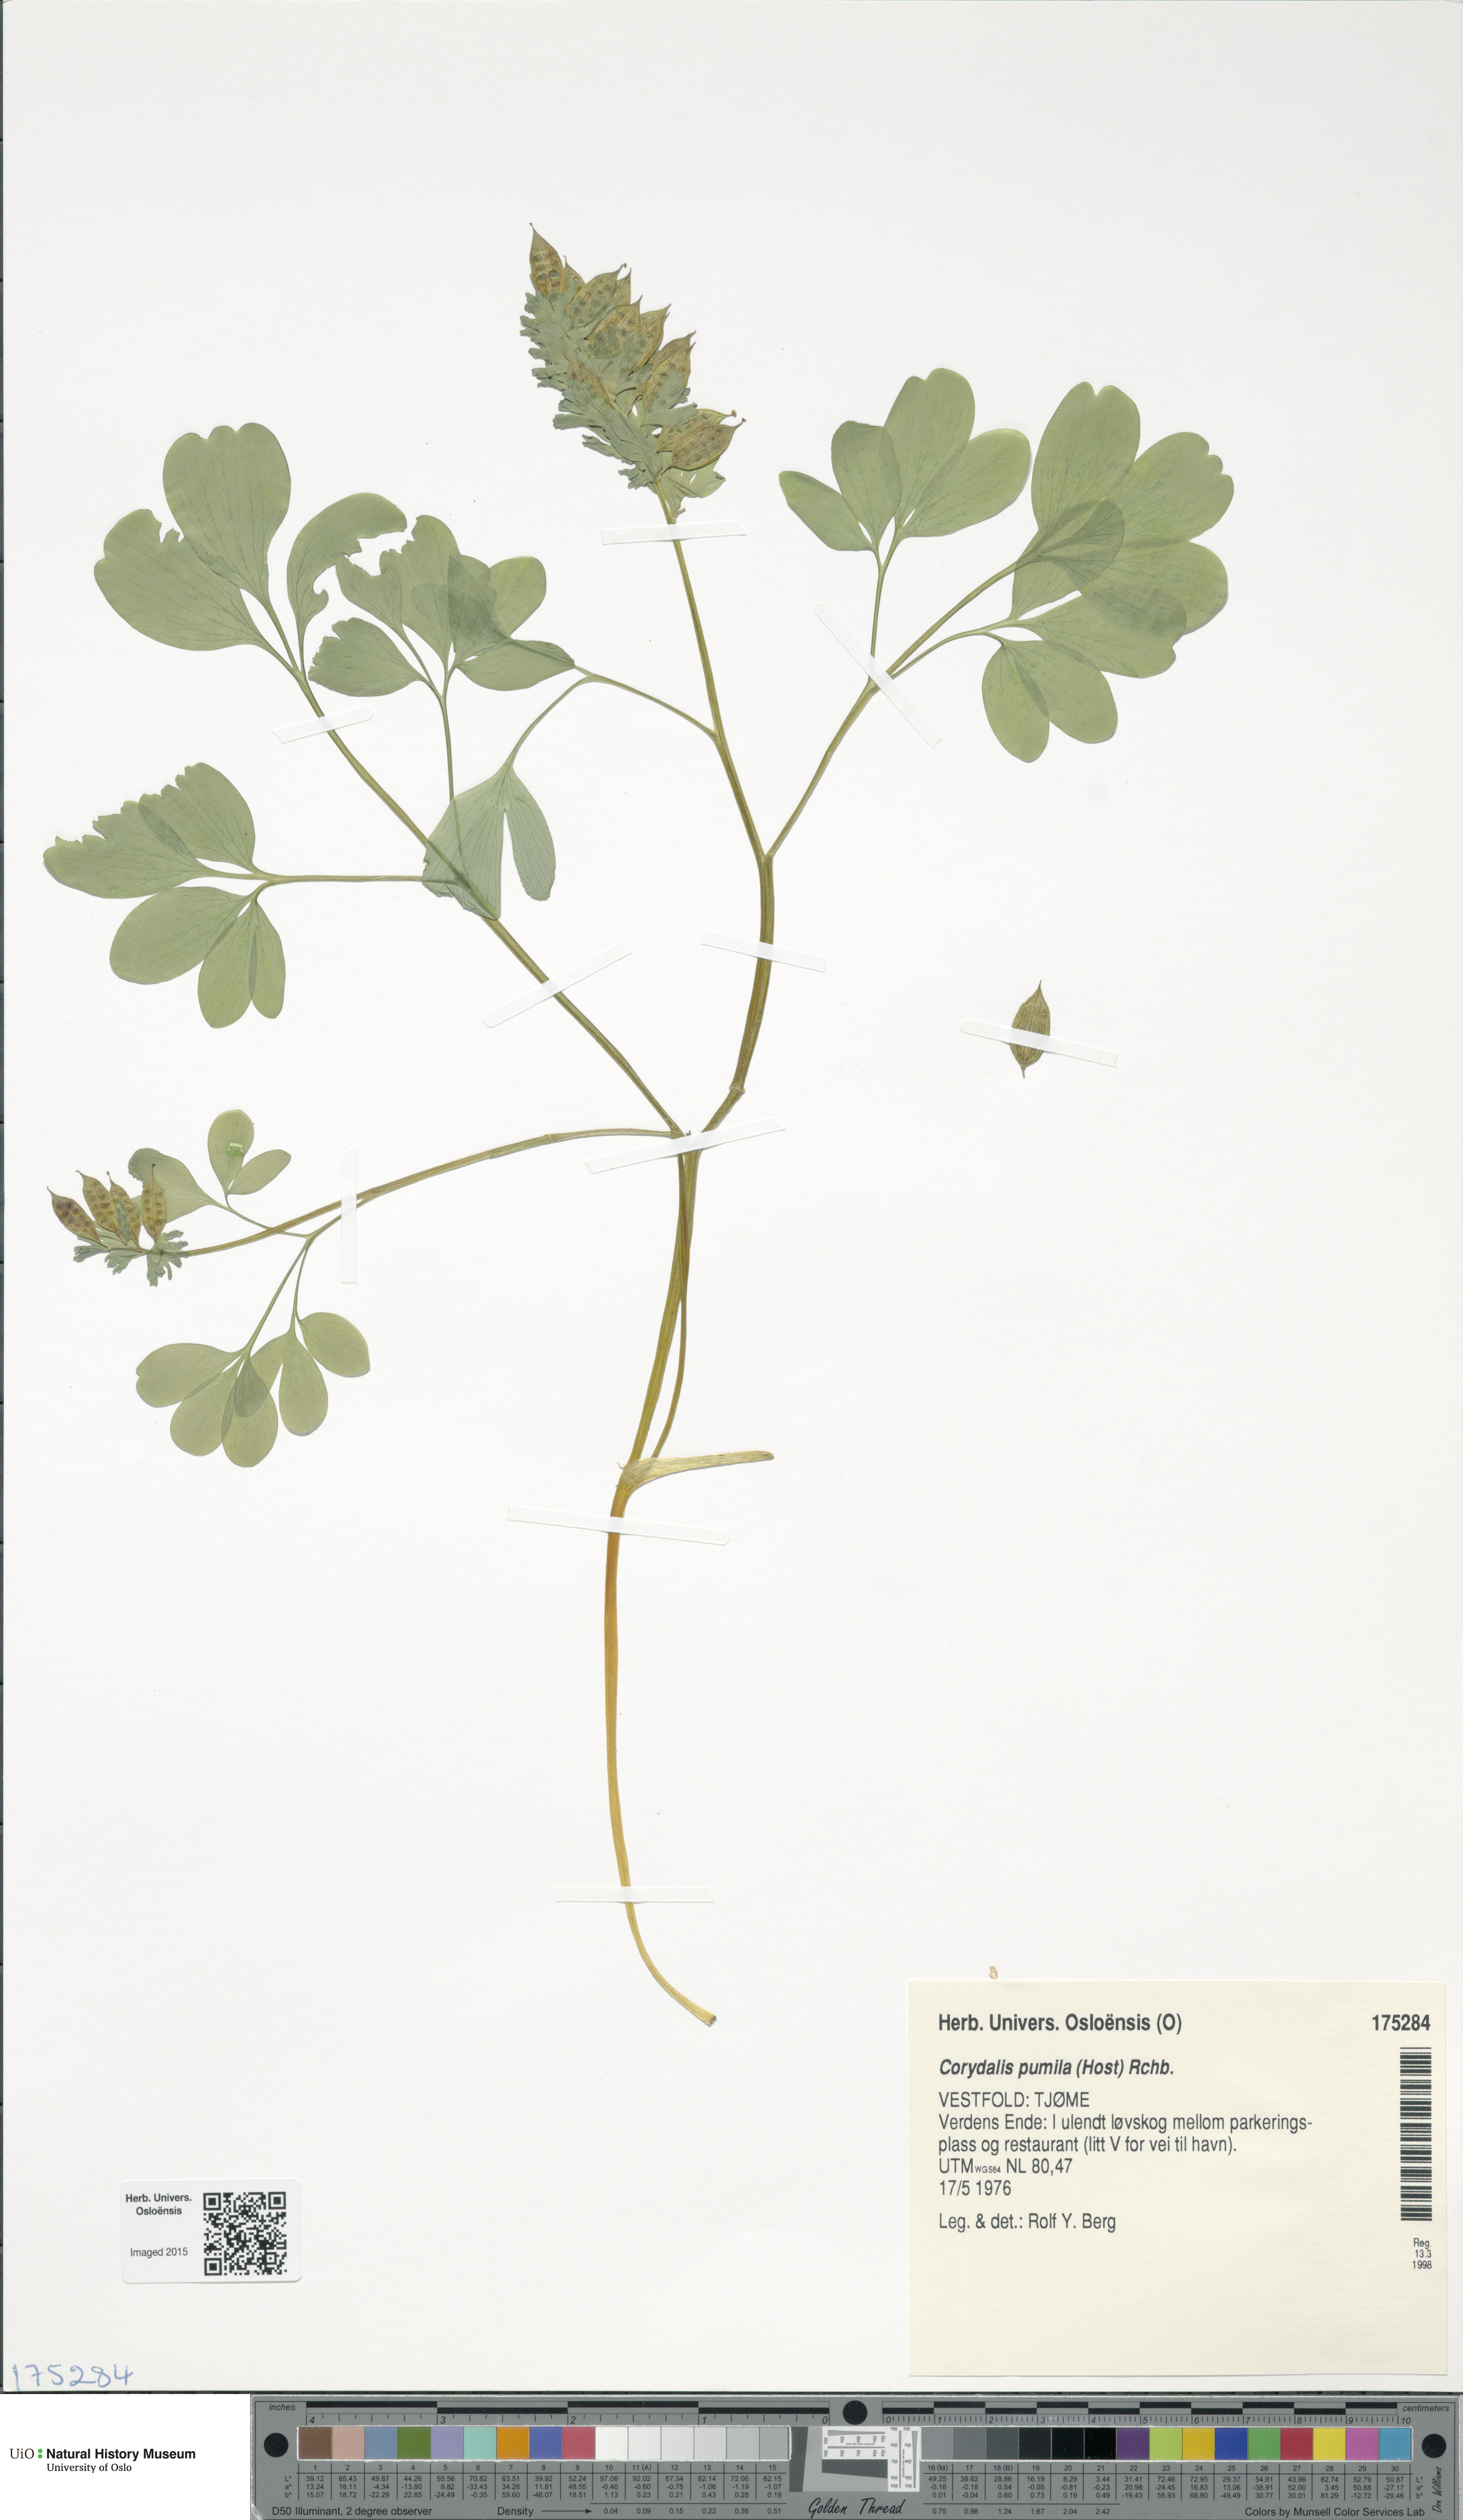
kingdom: Plantae
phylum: Tracheophyta
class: Magnoliopsida
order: Ranunculales
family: Papaveraceae
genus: Corydalis
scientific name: Corydalis pumila
